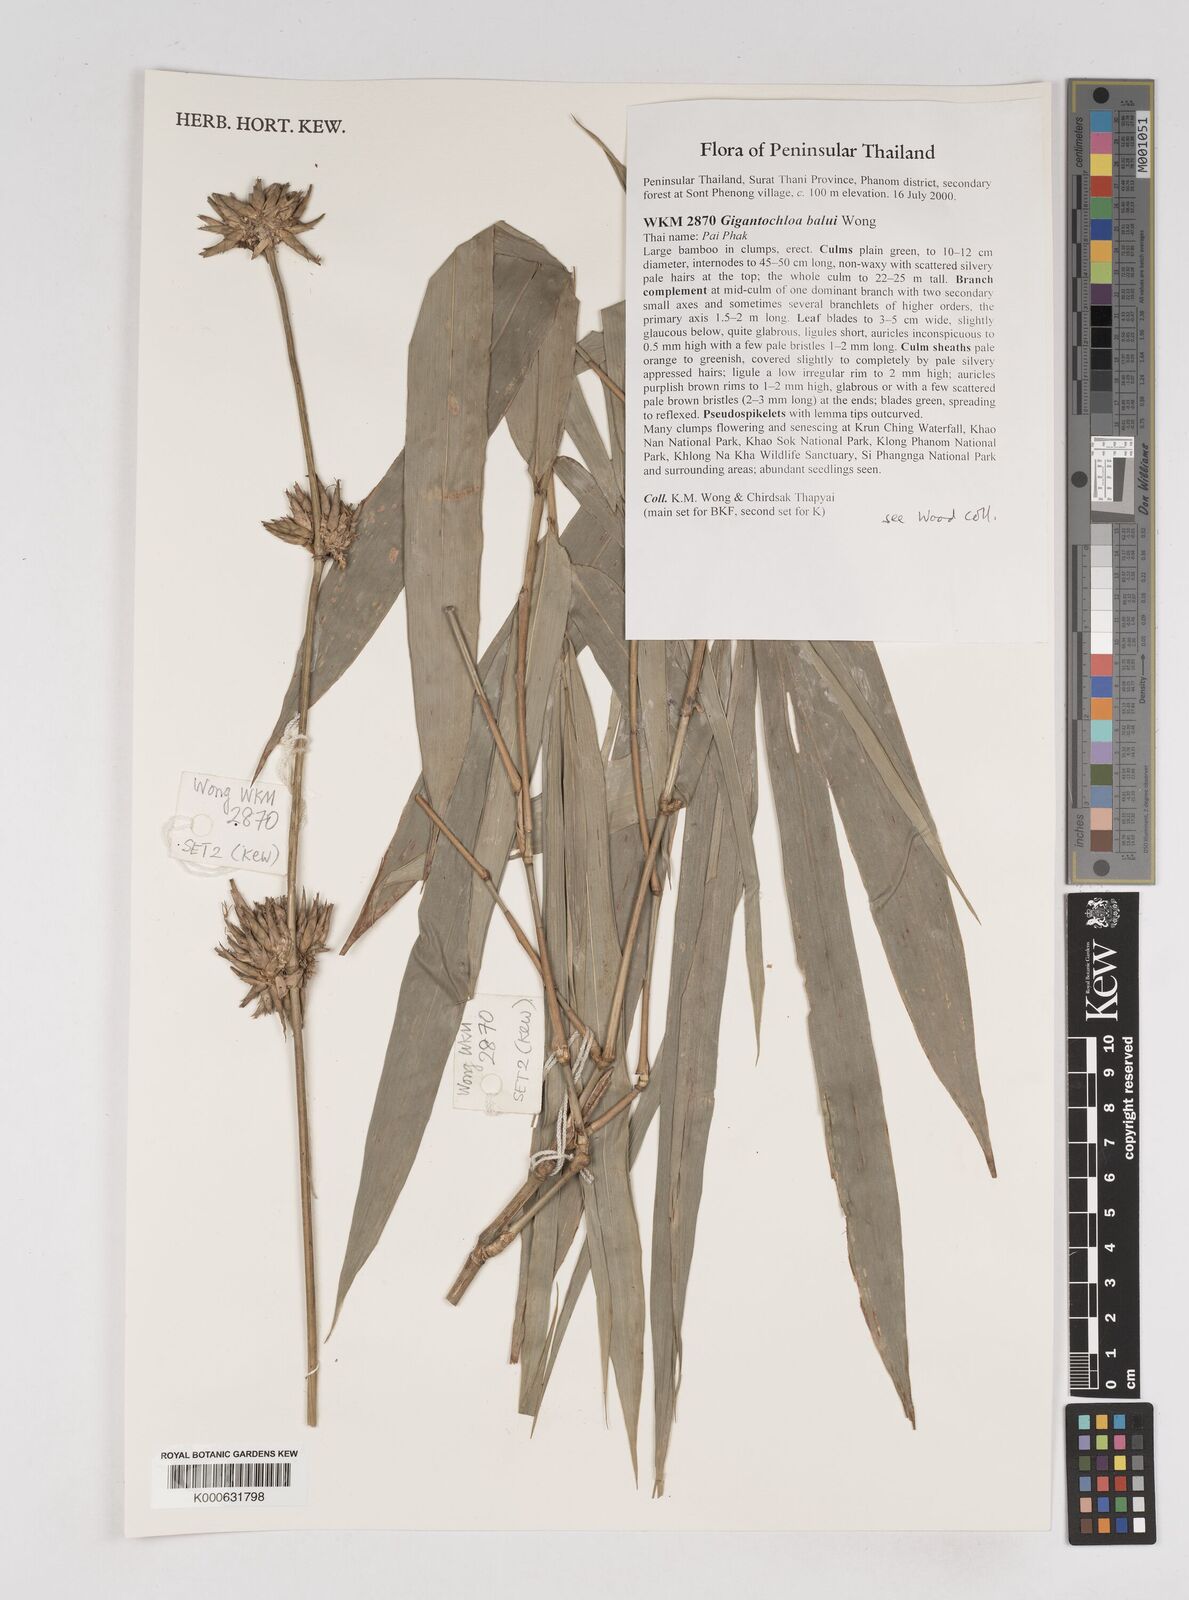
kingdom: Plantae
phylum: Tracheophyta
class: Liliopsida
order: Poales
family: Poaceae
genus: Gigantochloa
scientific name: Gigantochloa
